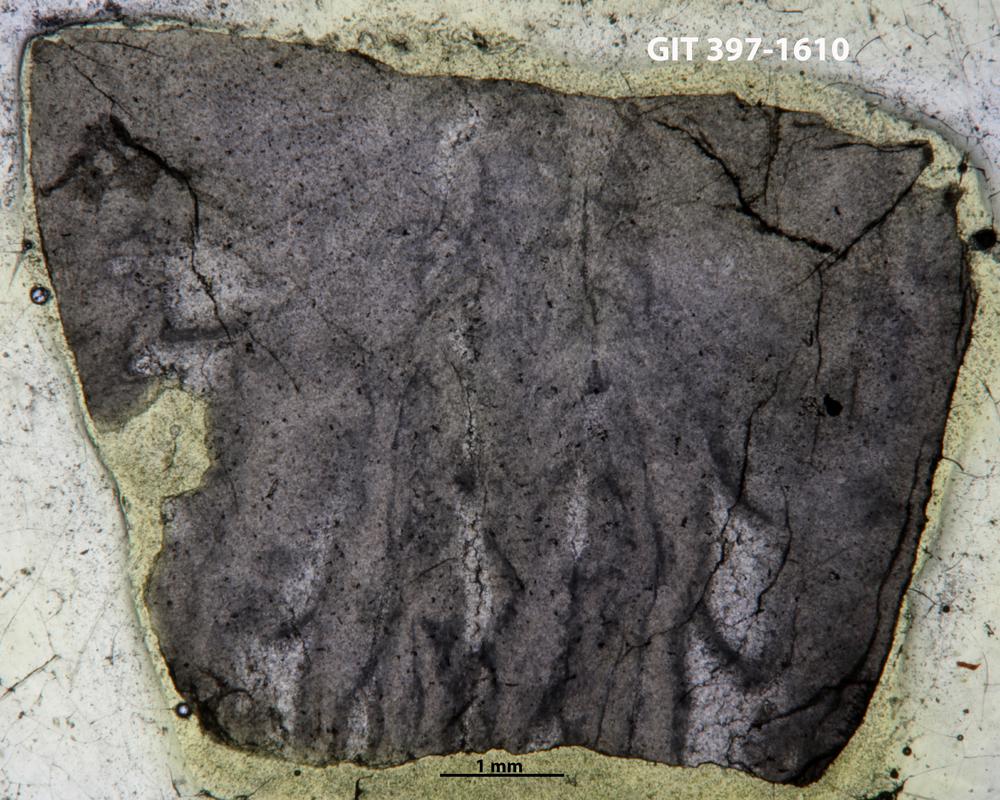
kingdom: Animalia
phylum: Cnidaria
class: Anthozoa
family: Streptelasmatidae
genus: Rhegmaphyllum
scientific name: Rhegmaphyllum
